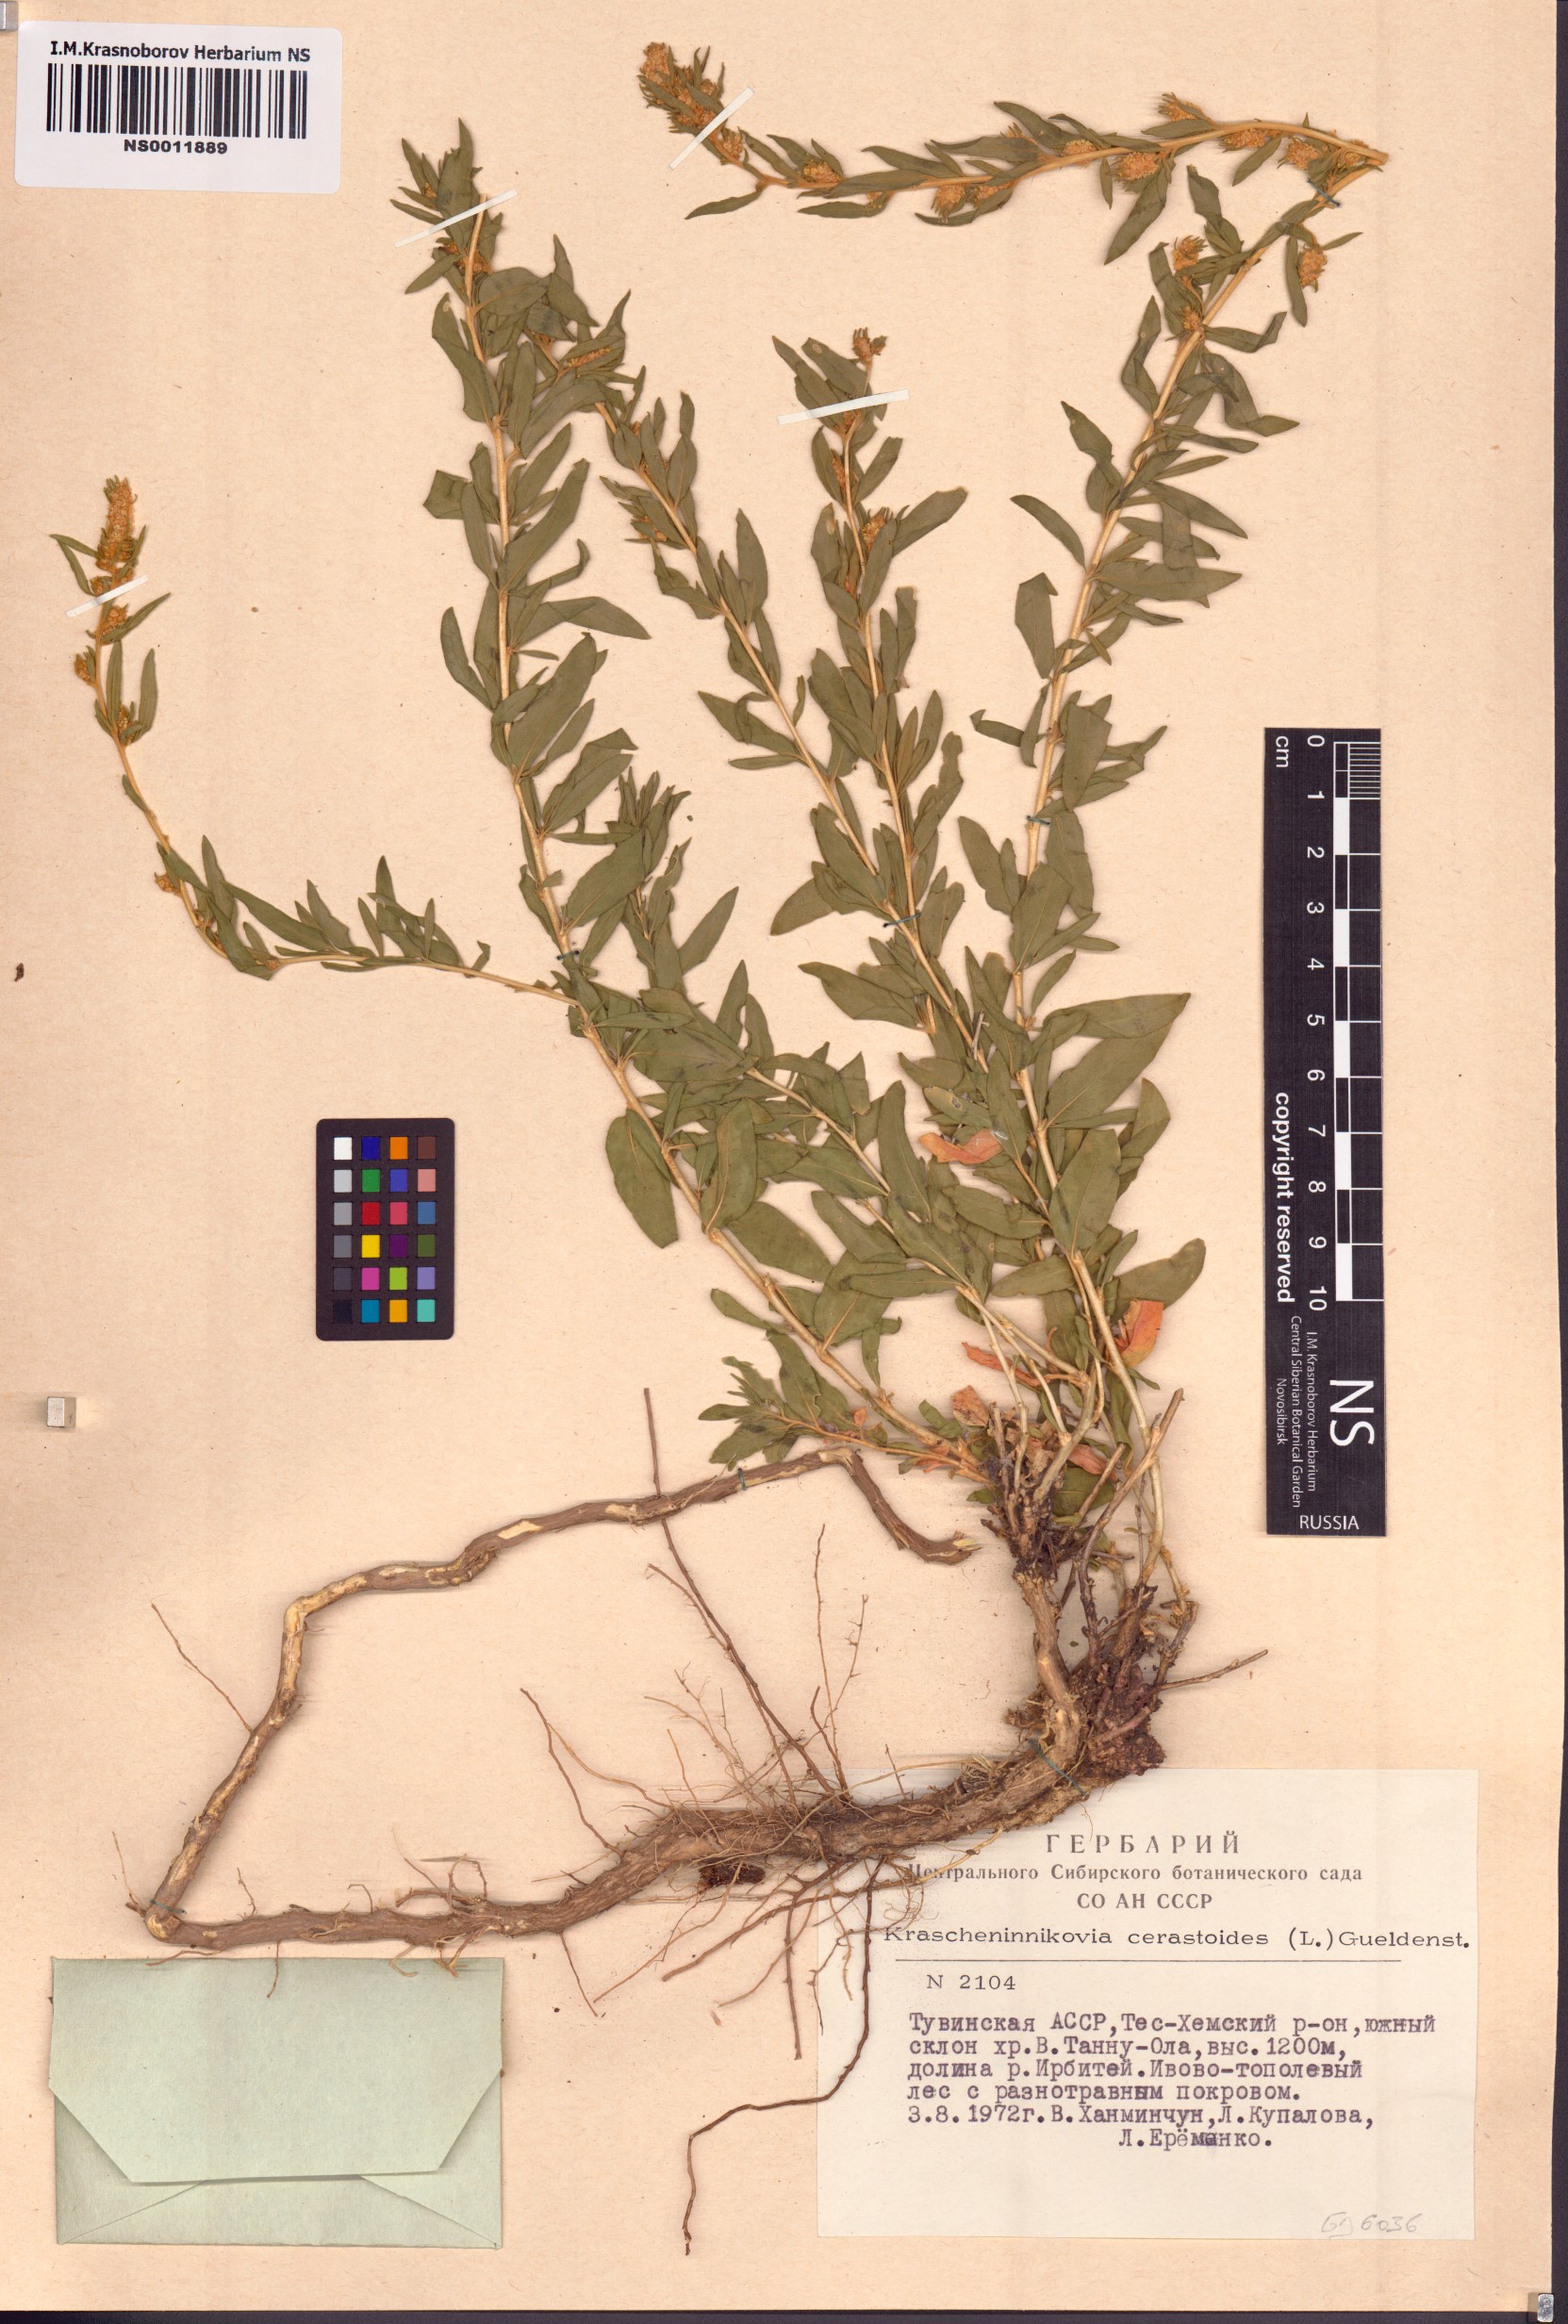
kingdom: Plantae
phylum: Tracheophyta
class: Magnoliopsida
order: Caryophyllales
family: Amaranthaceae
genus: Krascheninnikovia
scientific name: Krascheninnikovia ceratoides
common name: Pamirian winterfat
